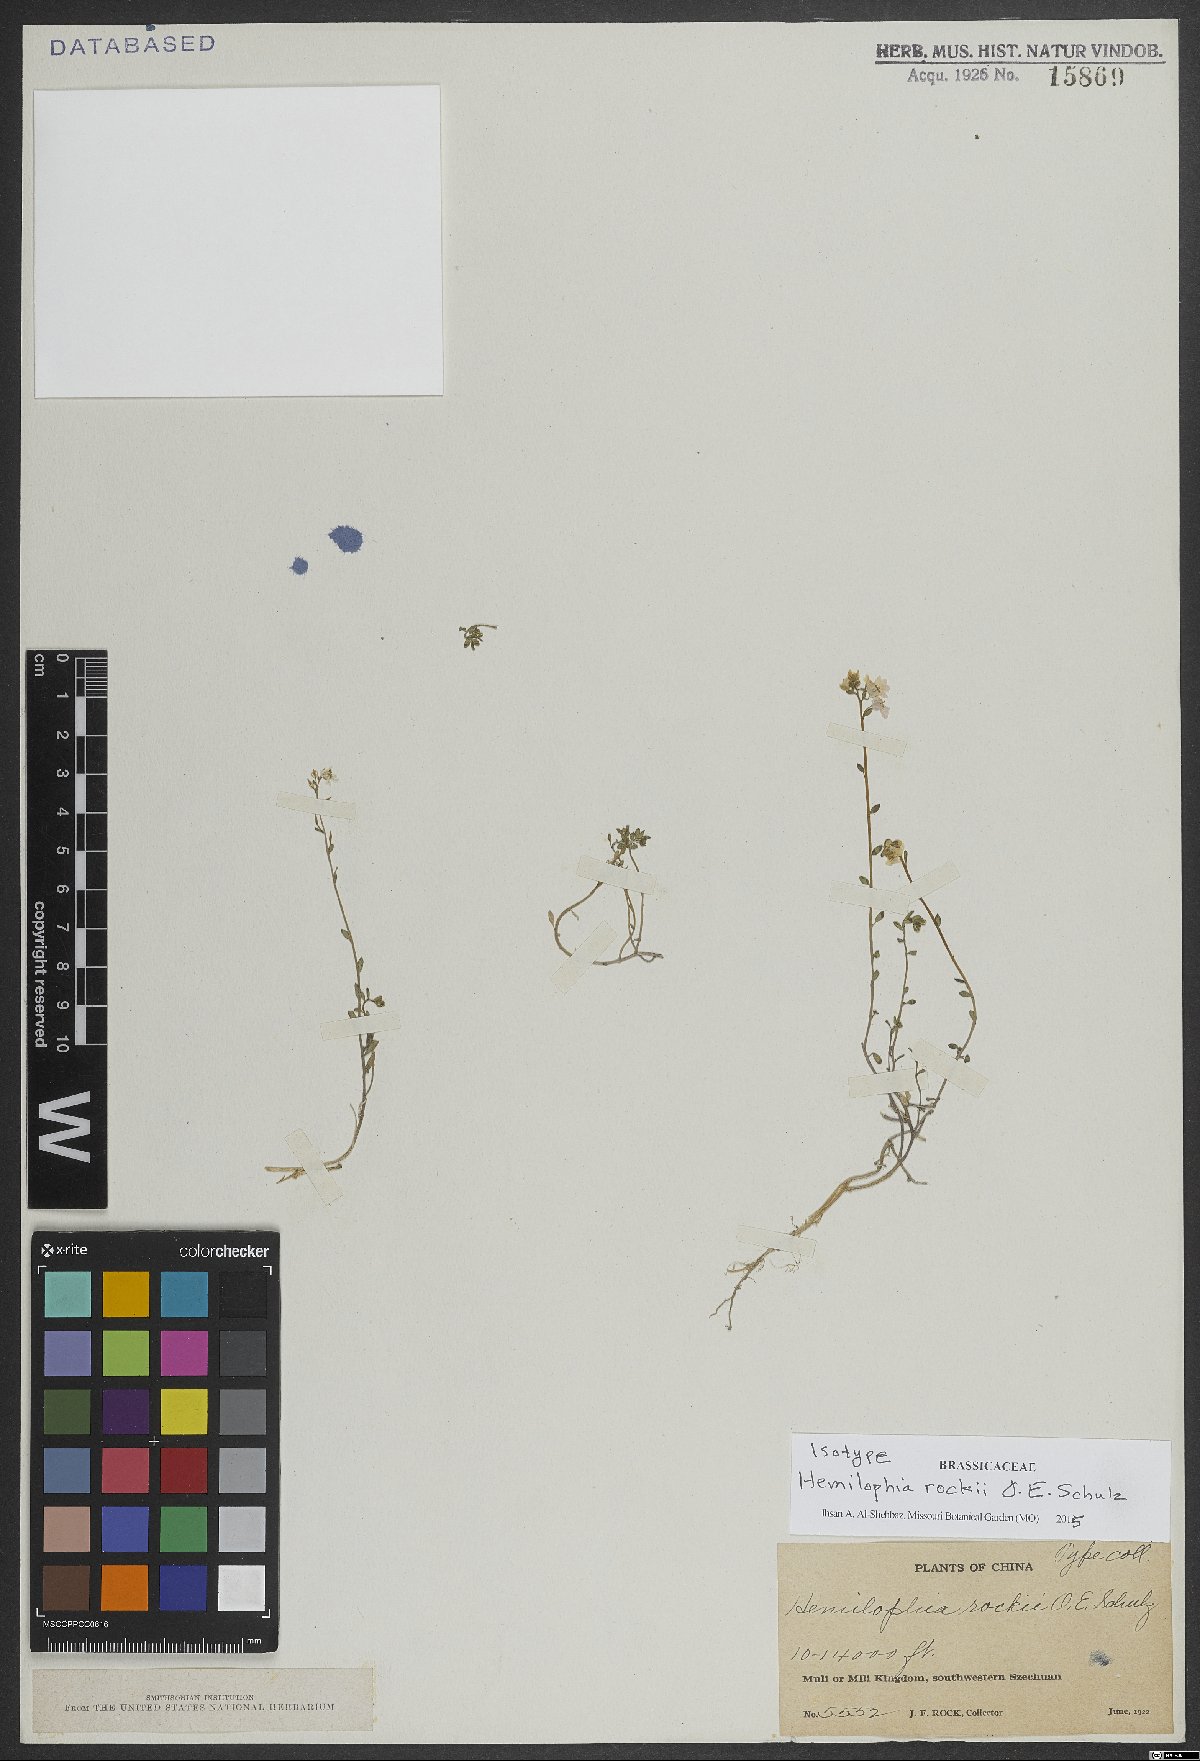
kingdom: Plantae
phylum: Tracheophyta
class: Magnoliopsida
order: Brassicales
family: Brassicaceae
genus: Hemilophia
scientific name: Hemilophia rockii
